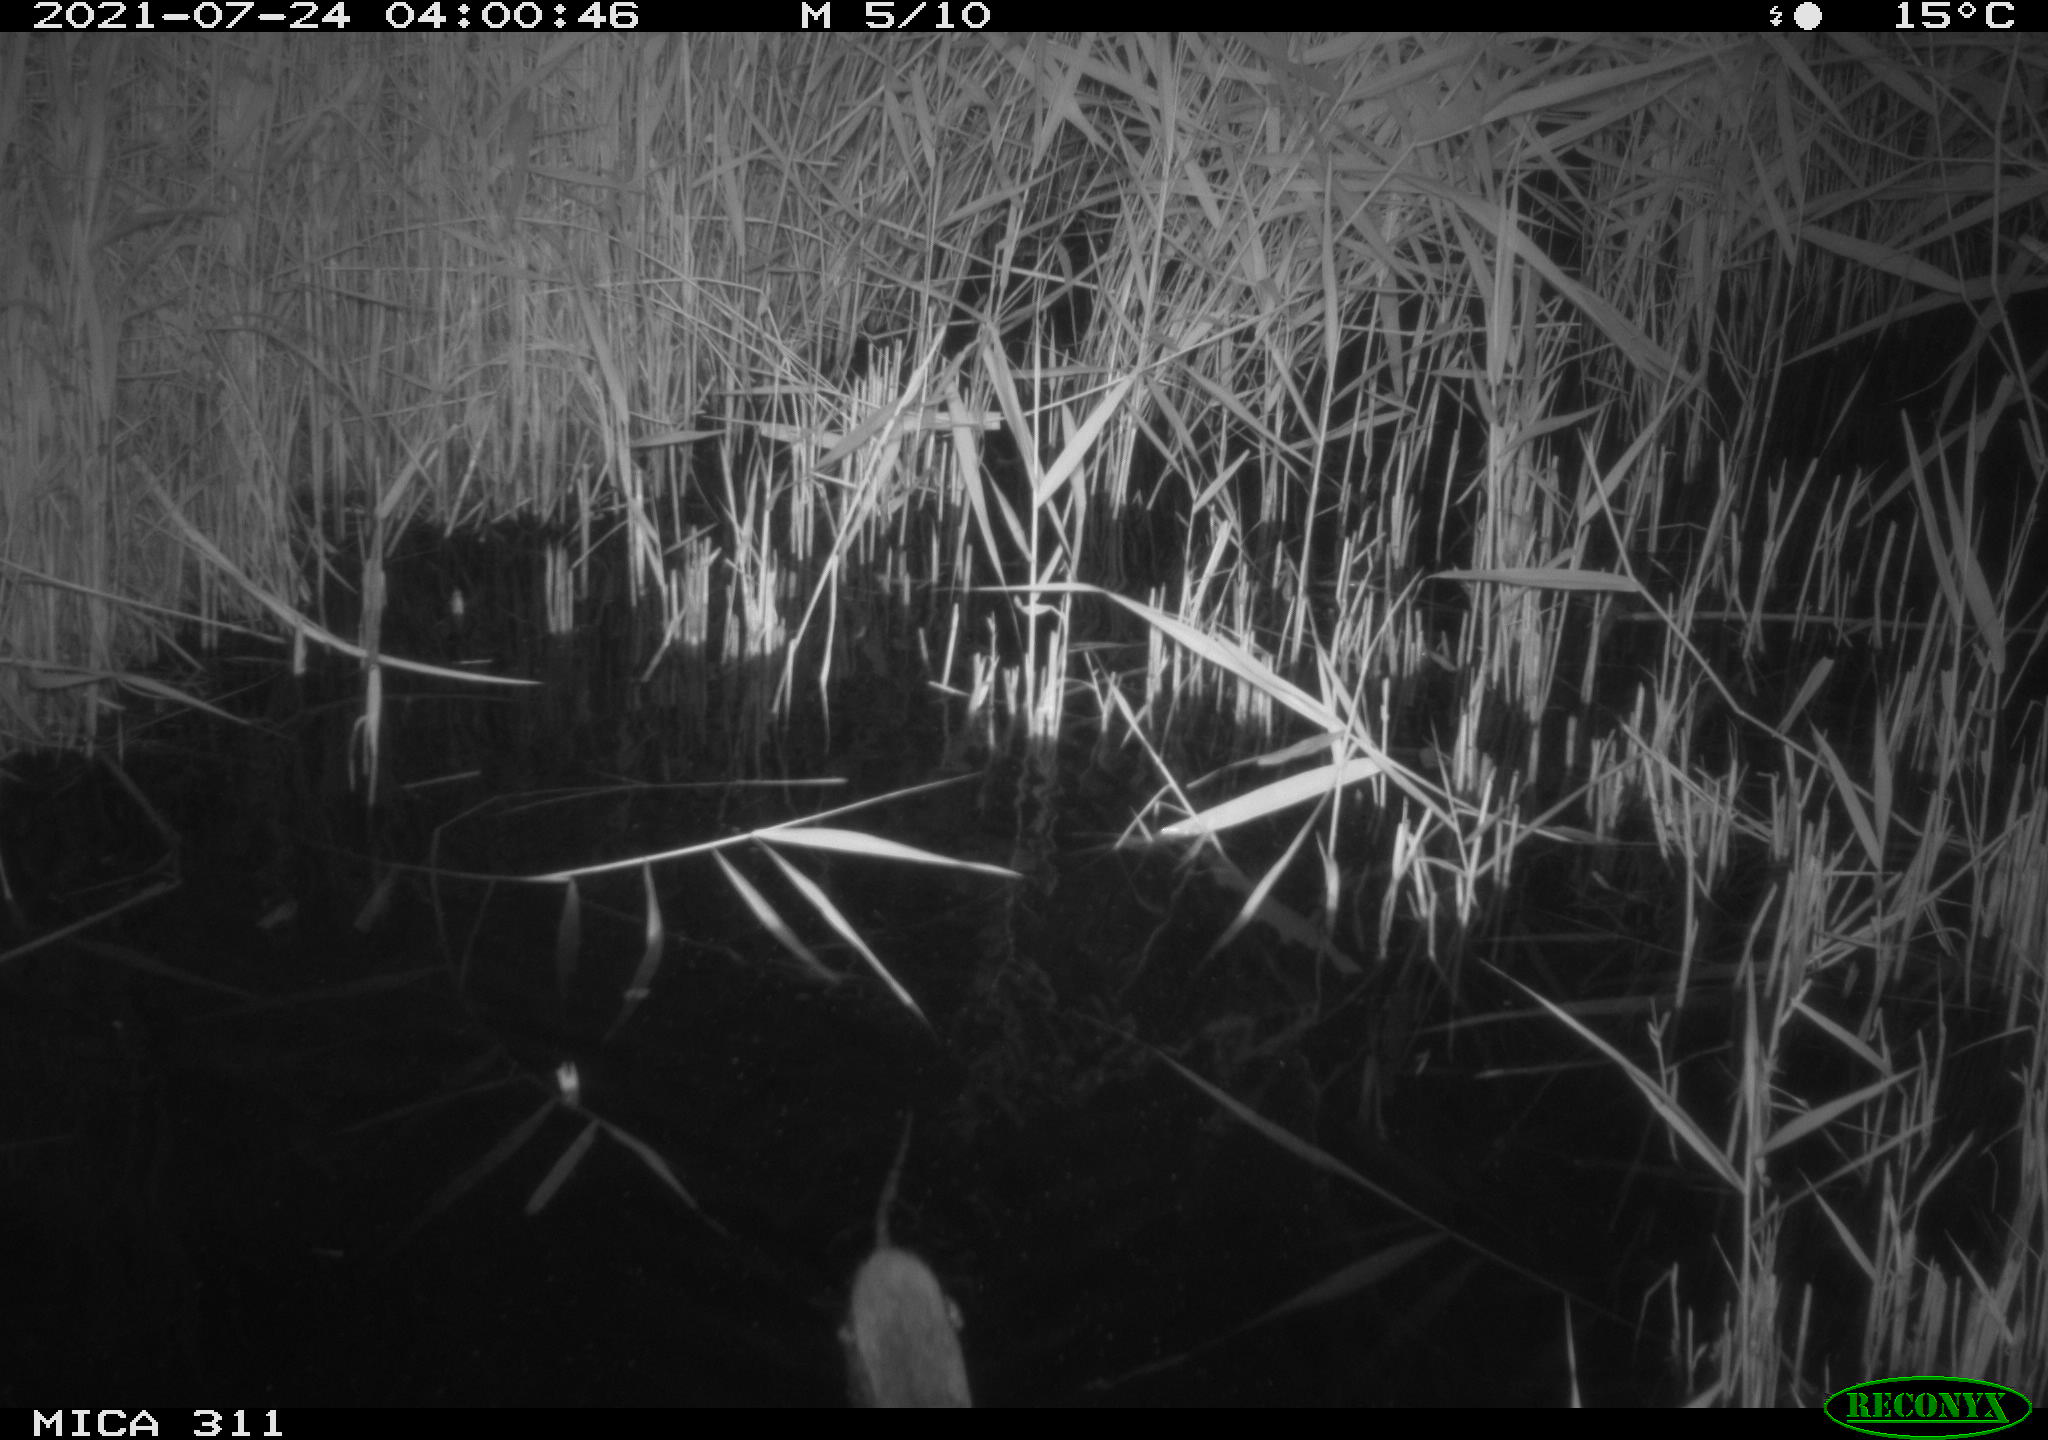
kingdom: Animalia
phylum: Chordata
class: Mammalia
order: Rodentia
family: Muridae
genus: Rattus
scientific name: Rattus norvegicus
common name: Brown rat
